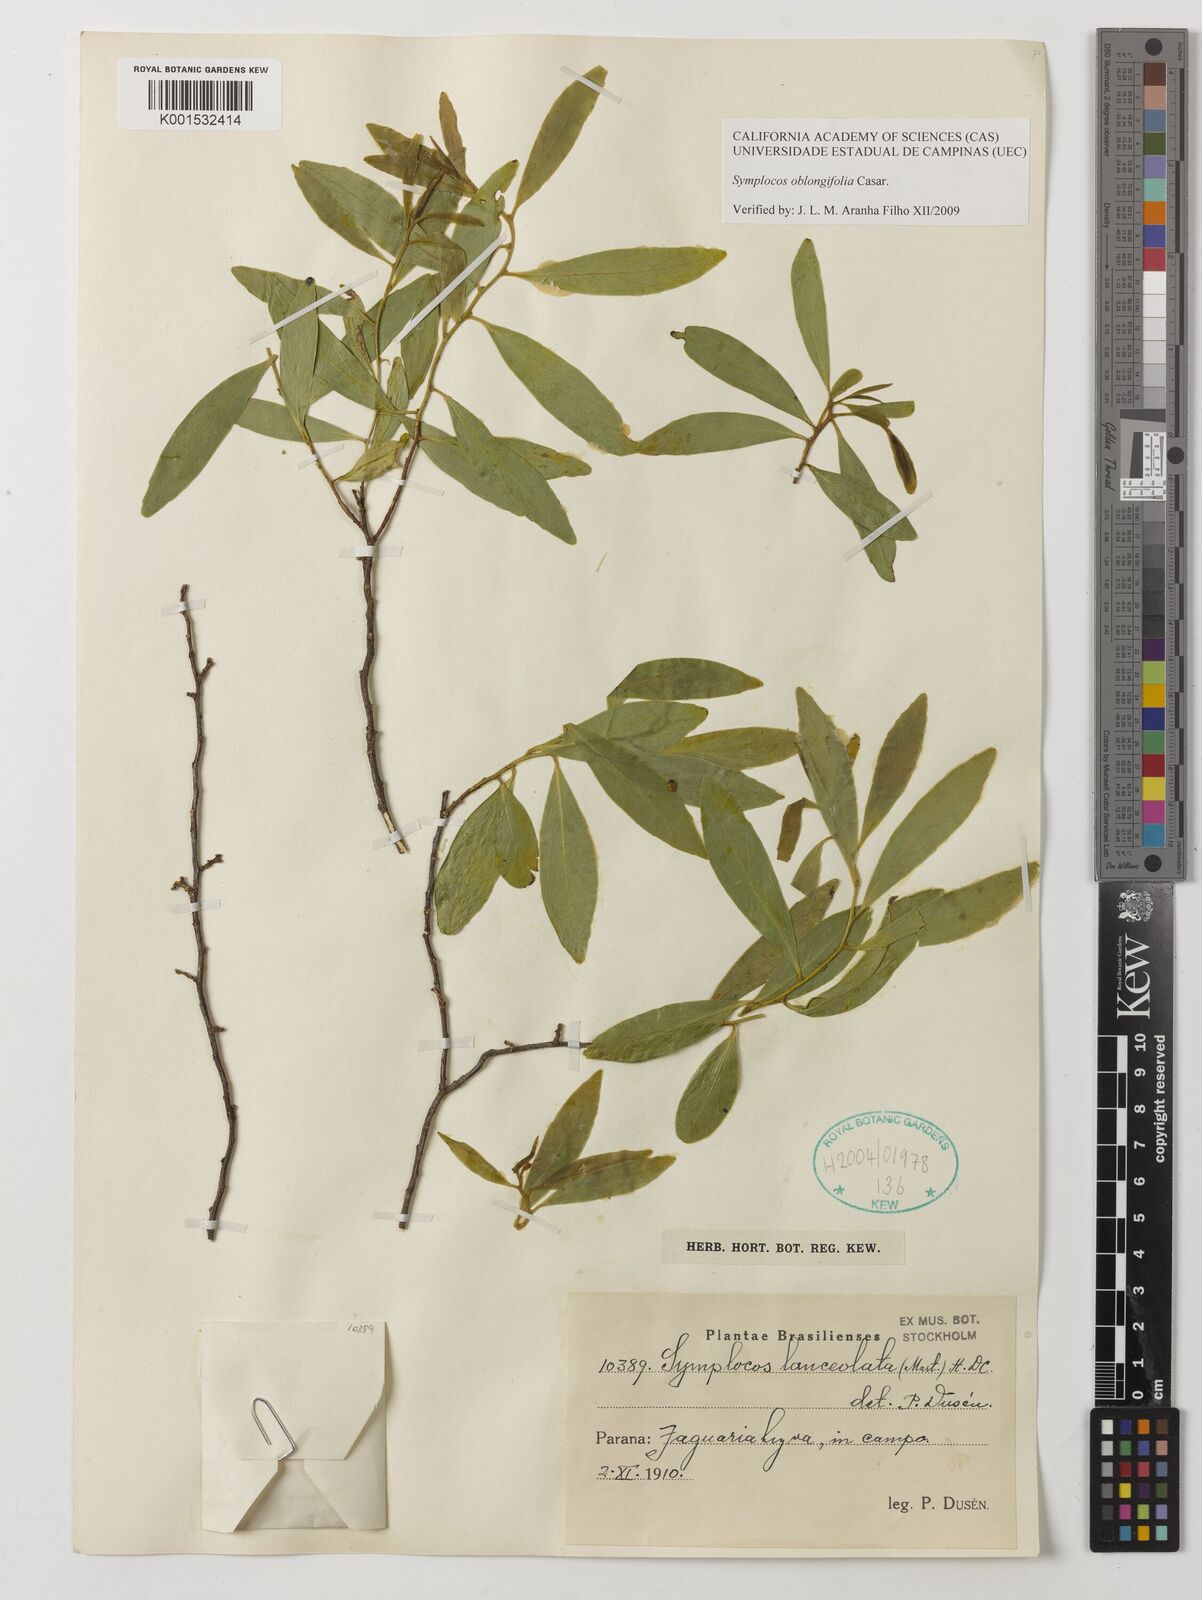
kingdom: Plantae
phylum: Tracheophyta
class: Magnoliopsida
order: Ericales
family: Symplocaceae
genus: Symplocos
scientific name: Symplocos oblongifolia
